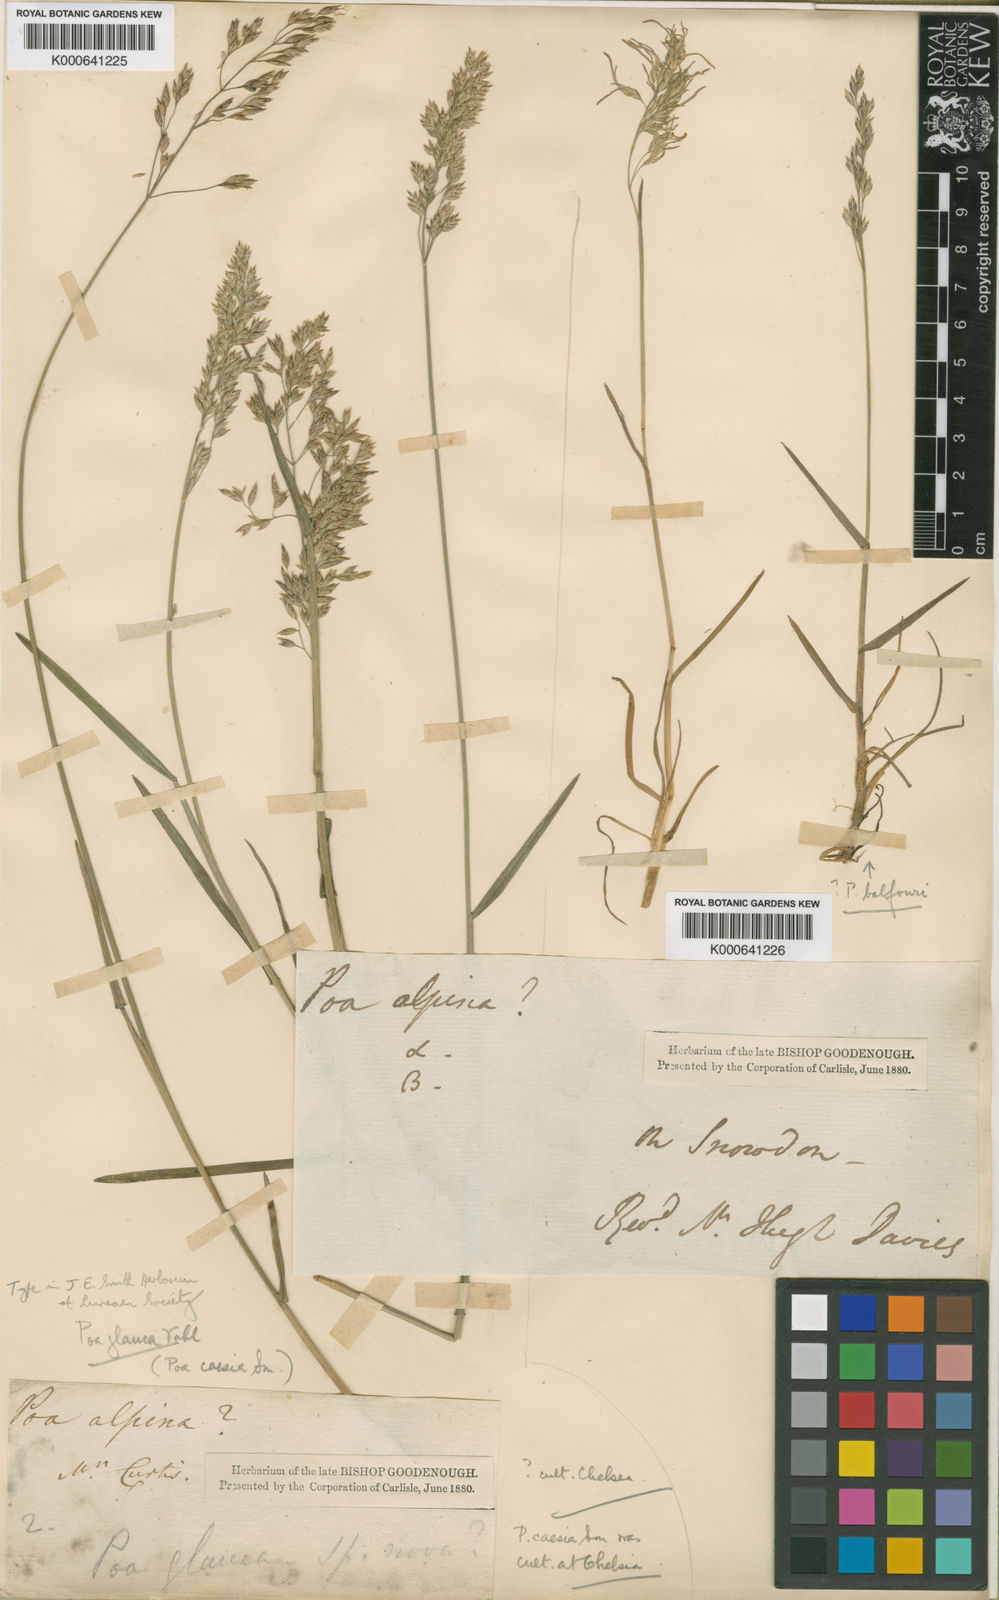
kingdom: Plantae
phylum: Tracheophyta
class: Liliopsida
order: Poales
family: Poaceae
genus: Poa
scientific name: Poa glauca
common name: Glaucous bluegrass
